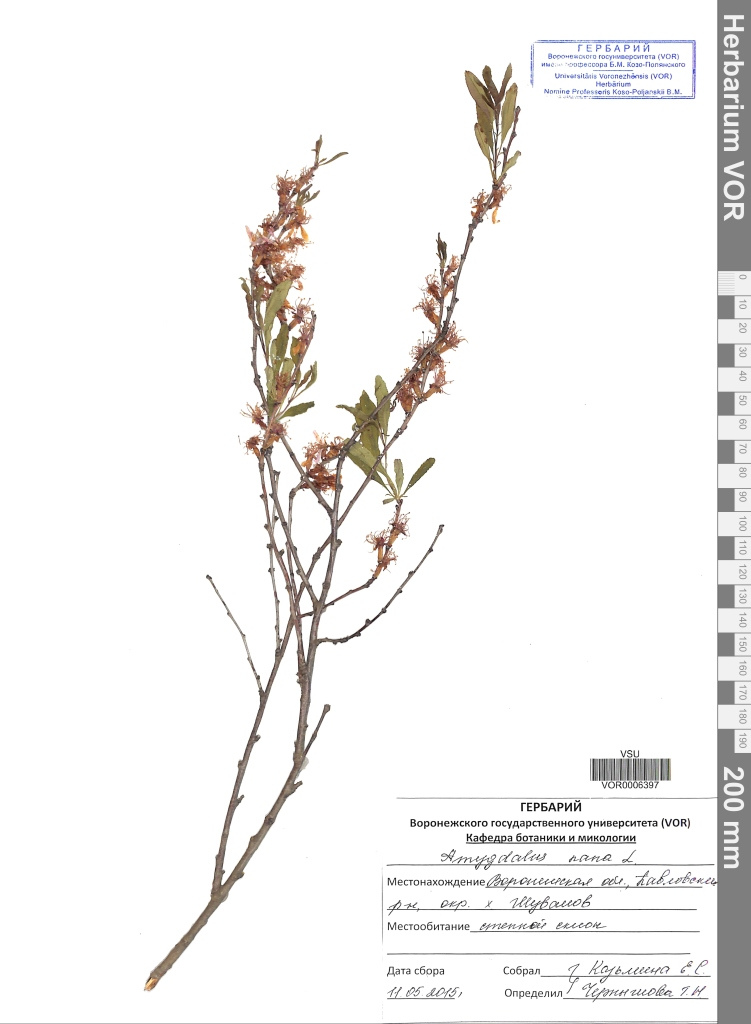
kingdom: Plantae
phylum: Tracheophyta
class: Magnoliopsida
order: Rosales
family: Rosaceae
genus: Prunus
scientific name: Prunus tenella
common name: Dwarf russian almond
